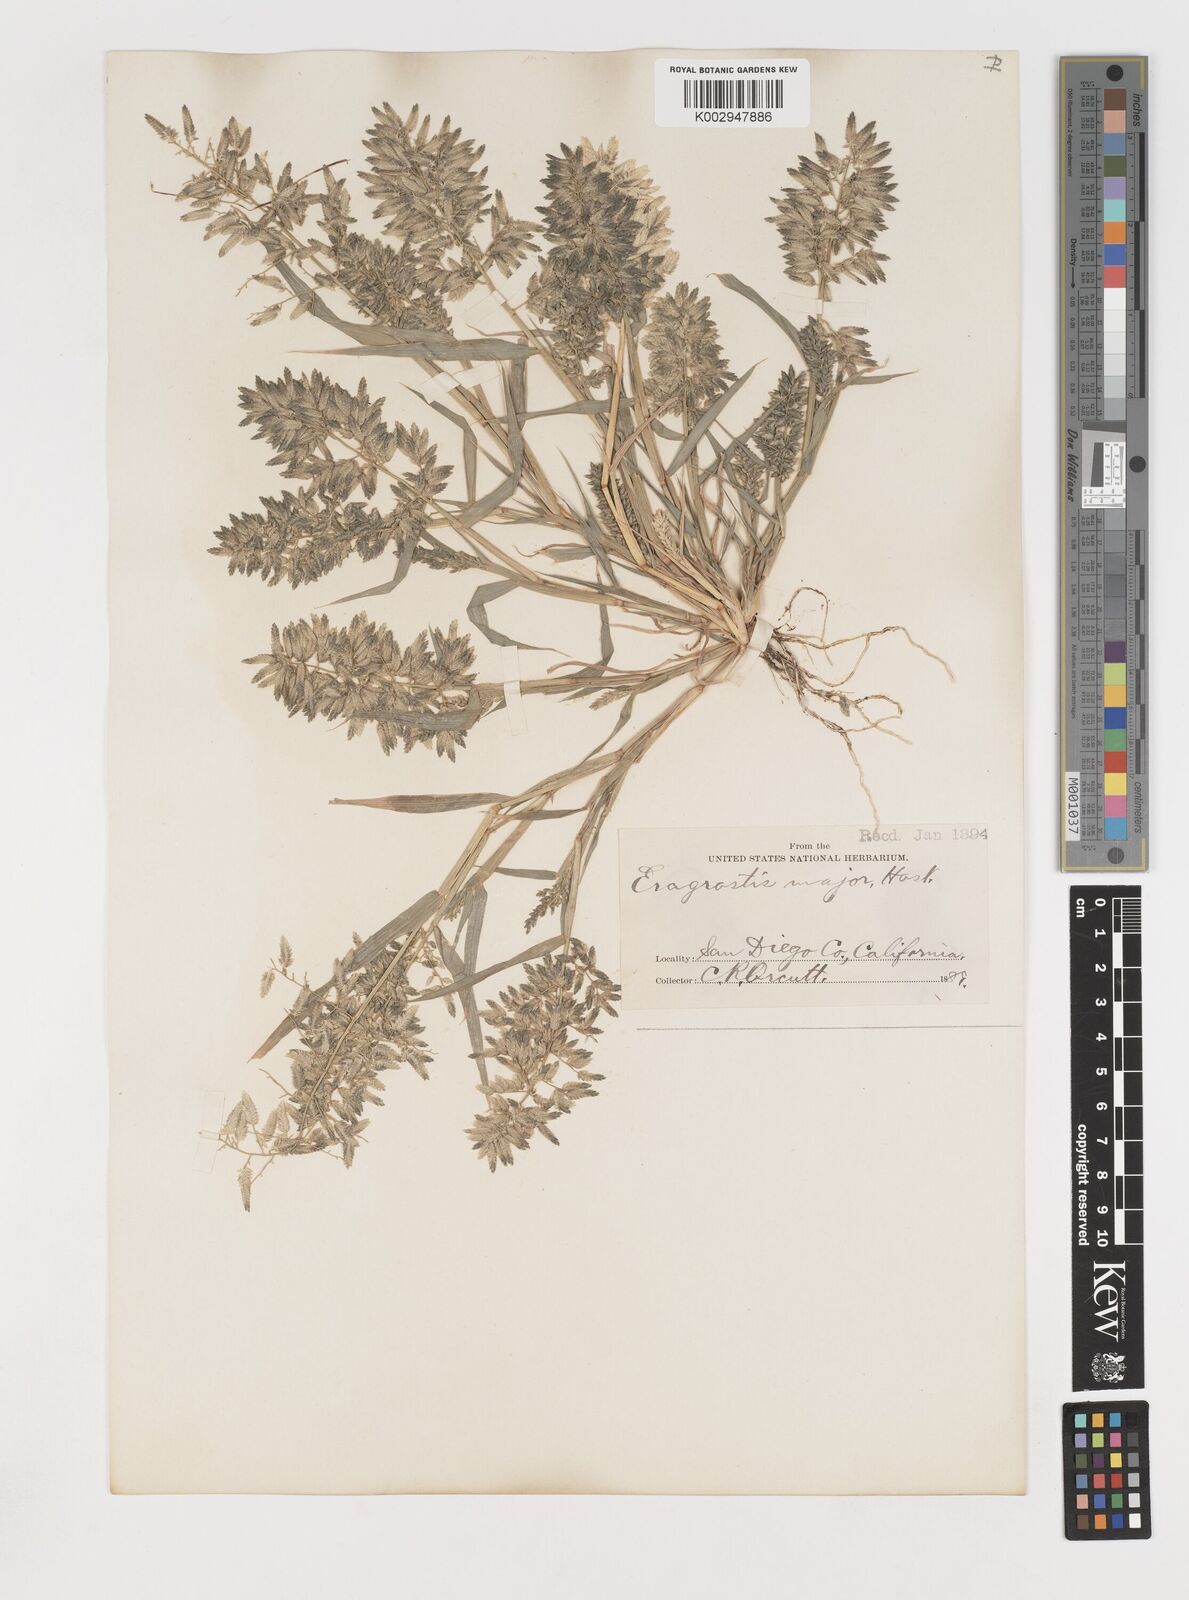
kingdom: Plantae
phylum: Tracheophyta
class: Liliopsida
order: Poales
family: Poaceae
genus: Eragrostis
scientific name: Eragrostis cilianensis
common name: Stinkgrass
